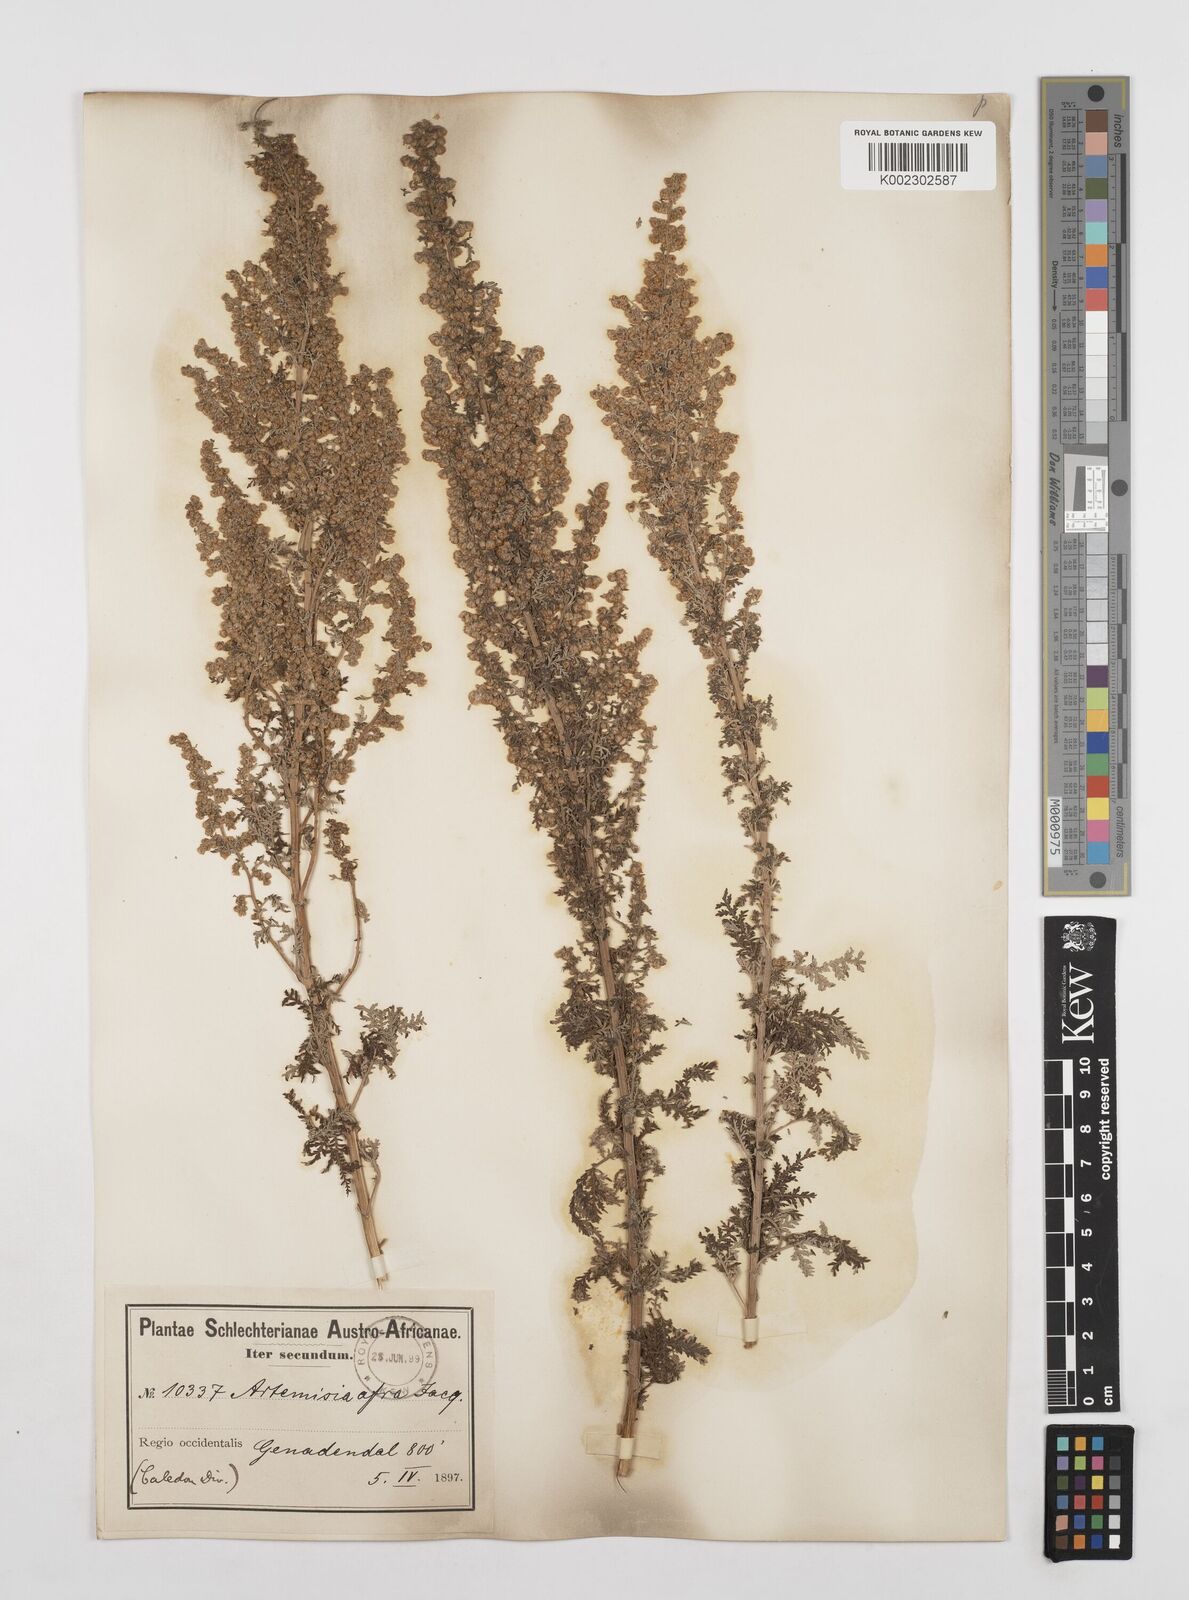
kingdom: Plantae
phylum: Tracheophyta
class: Magnoliopsida
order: Asterales
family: Asteraceae
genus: Artemisia
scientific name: Artemisia afra
